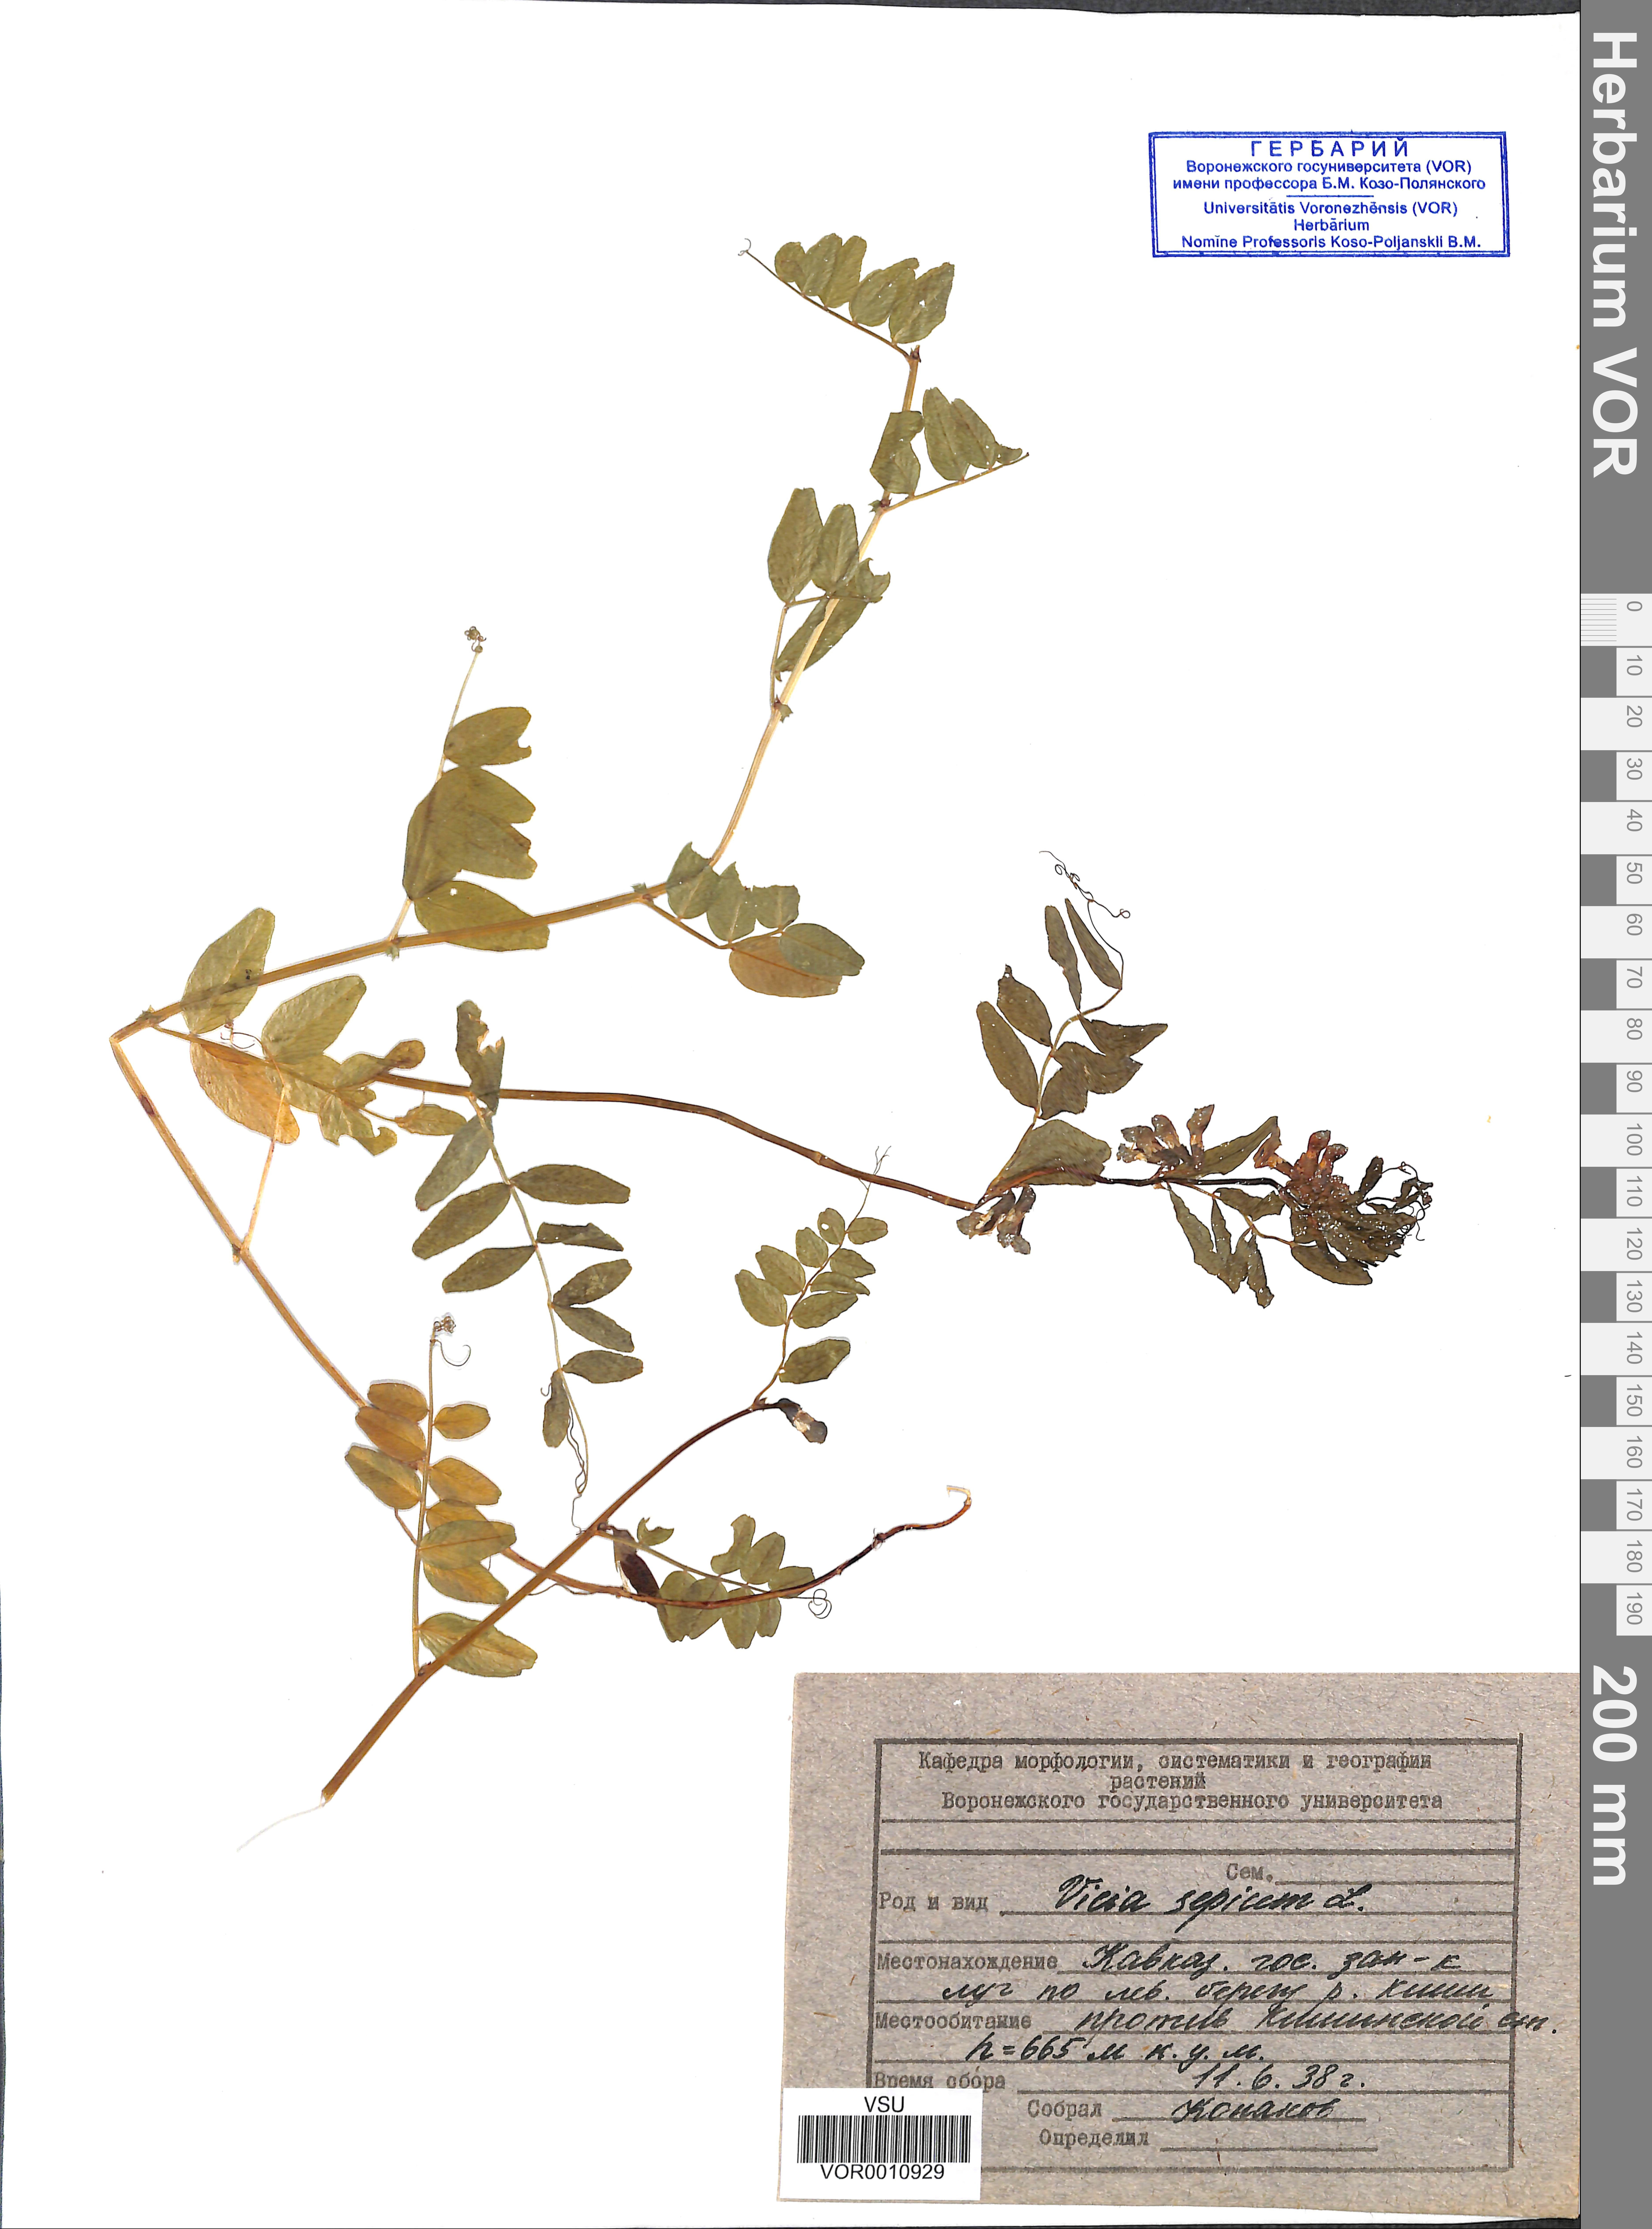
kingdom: Plantae
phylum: Tracheophyta
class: Magnoliopsida
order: Fabales
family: Fabaceae
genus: Vicia
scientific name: Vicia sepium
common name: Bush vetch
